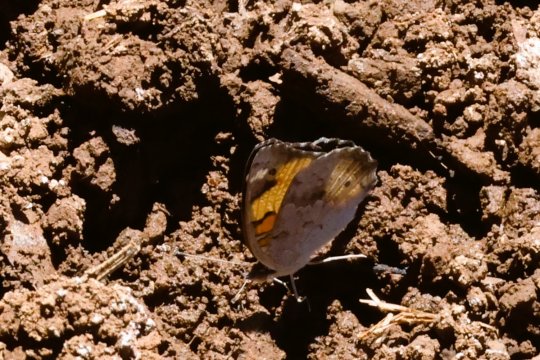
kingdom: Animalia
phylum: Arthropoda
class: Insecta
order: Lepidoptera
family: Nymphalidae
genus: Junonia
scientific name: Junonia hierta
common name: Yellow Pansy
